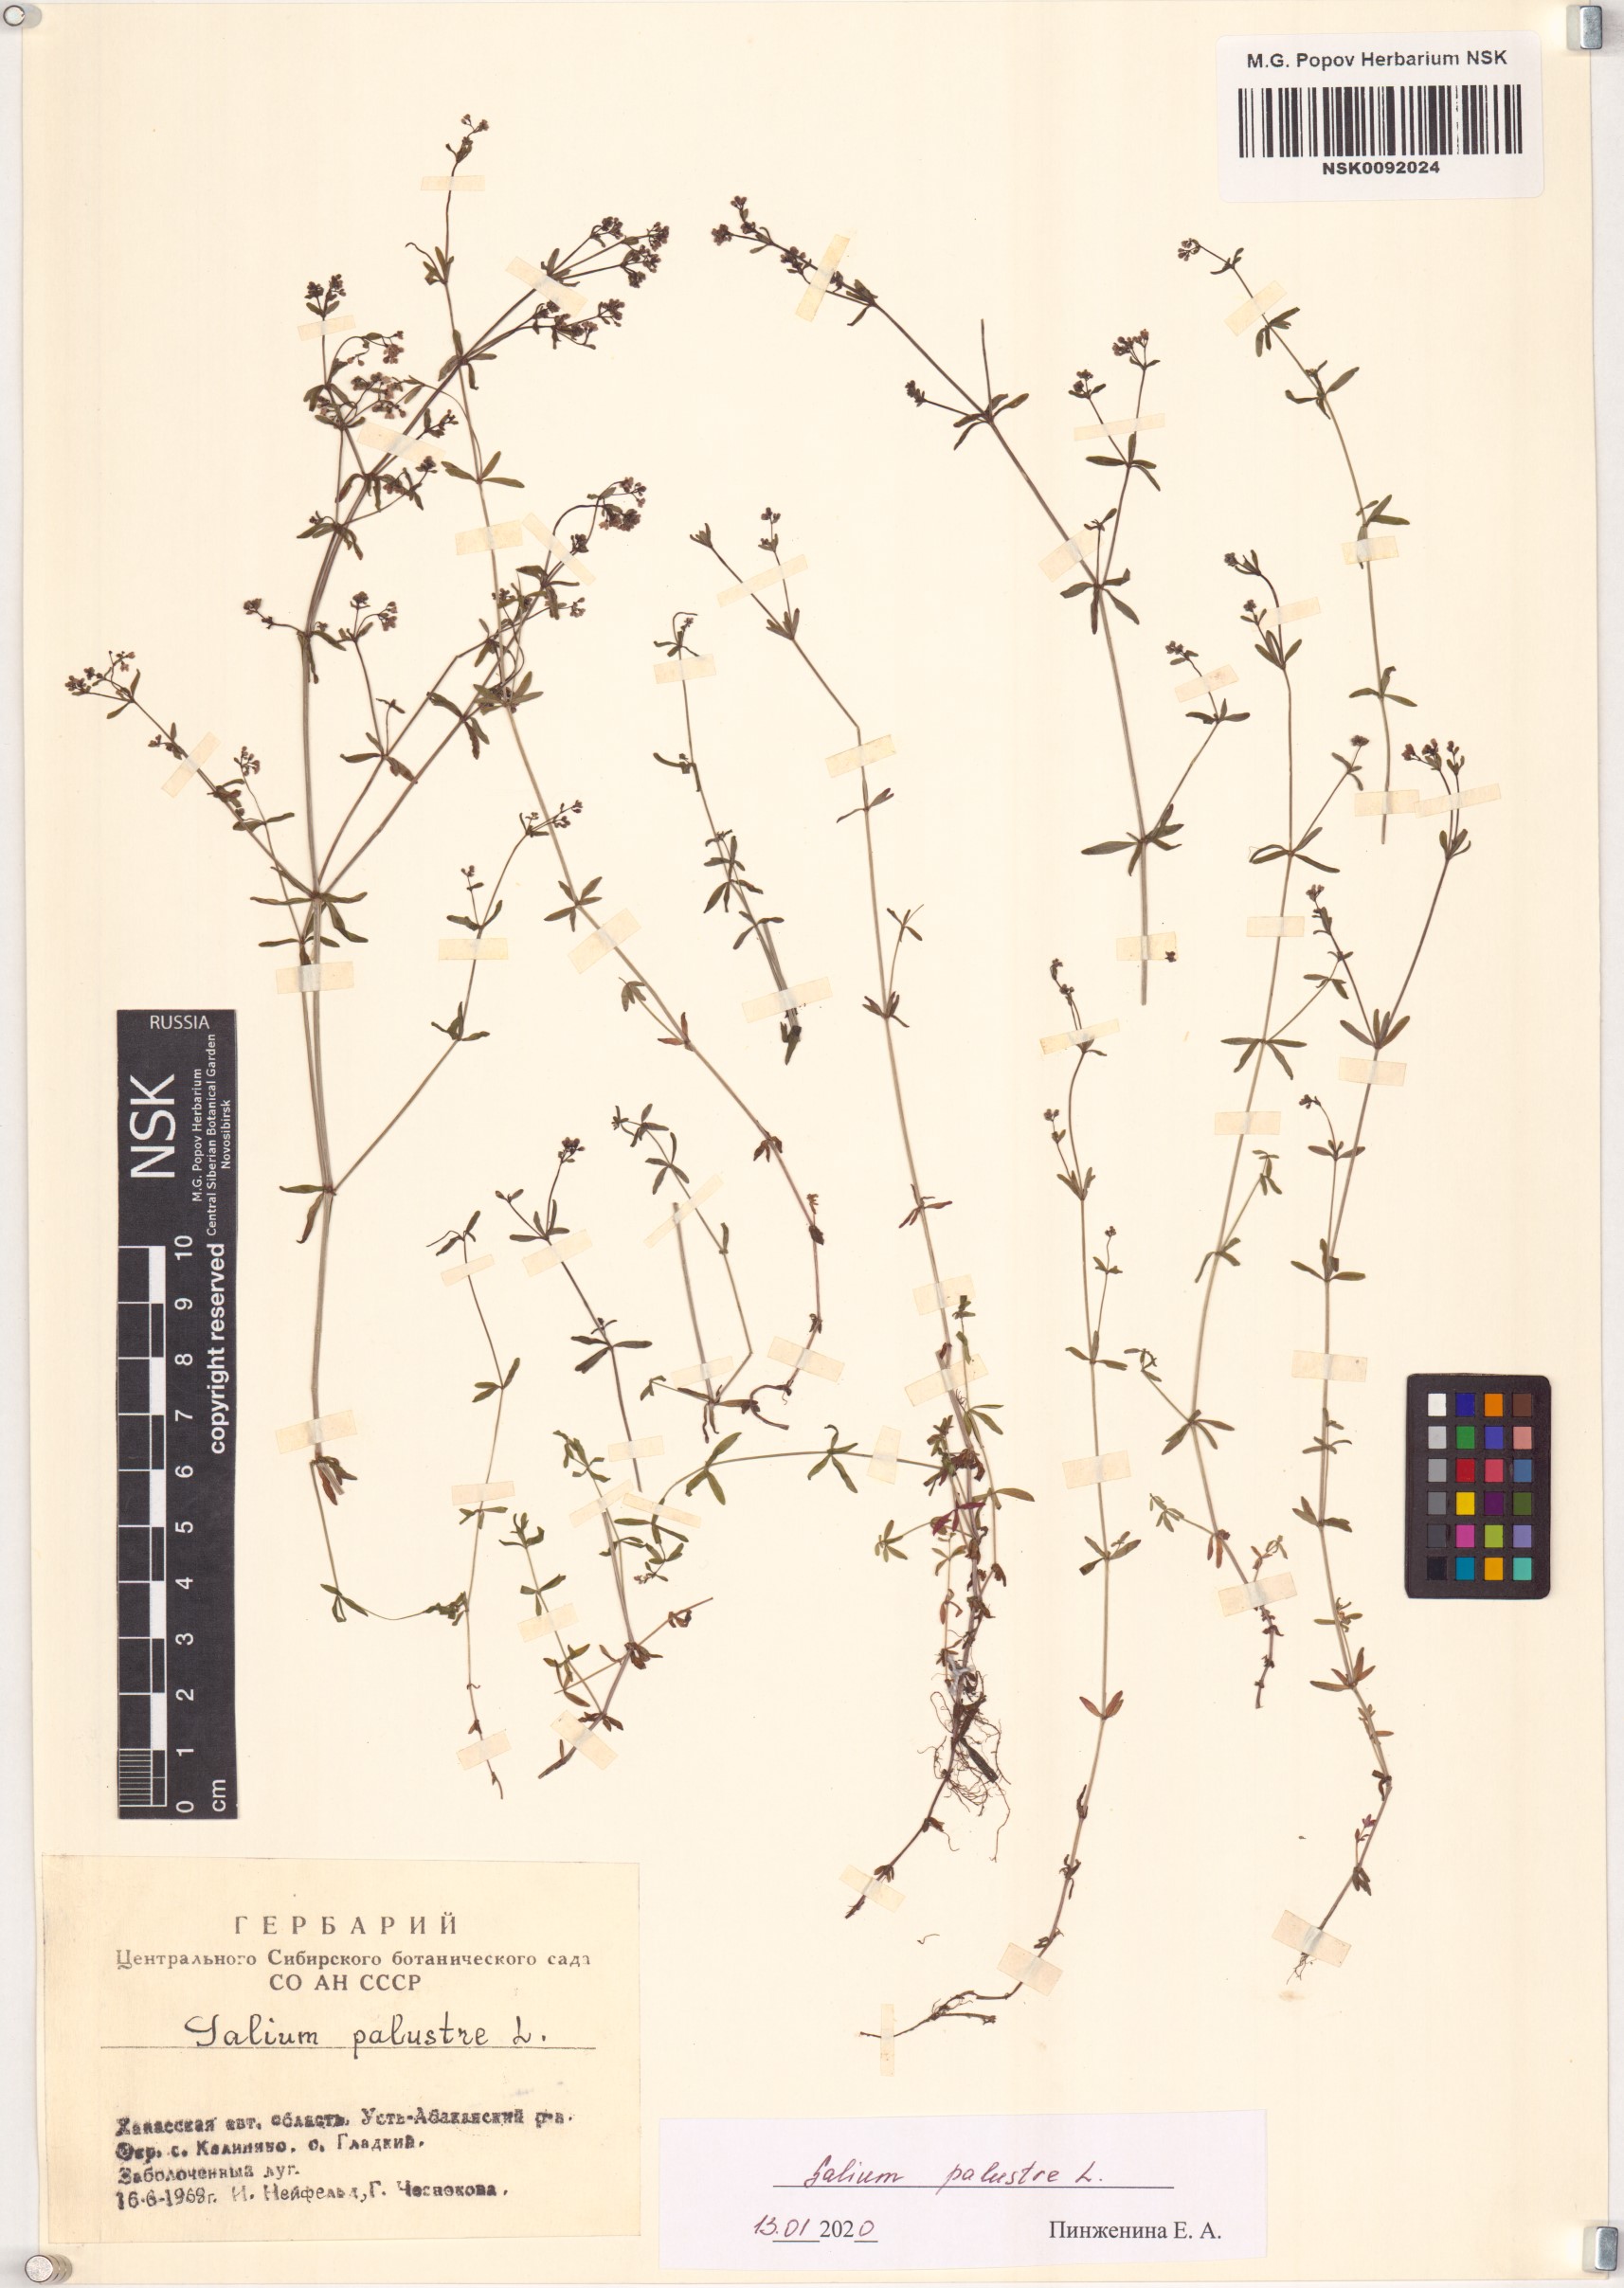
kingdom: Plantae
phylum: Tracheophyta
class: Magnoliopsida
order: Gentianales
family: Rubiaceae
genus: Galium
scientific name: Galium palustre
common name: Common marsh-bedstraw
